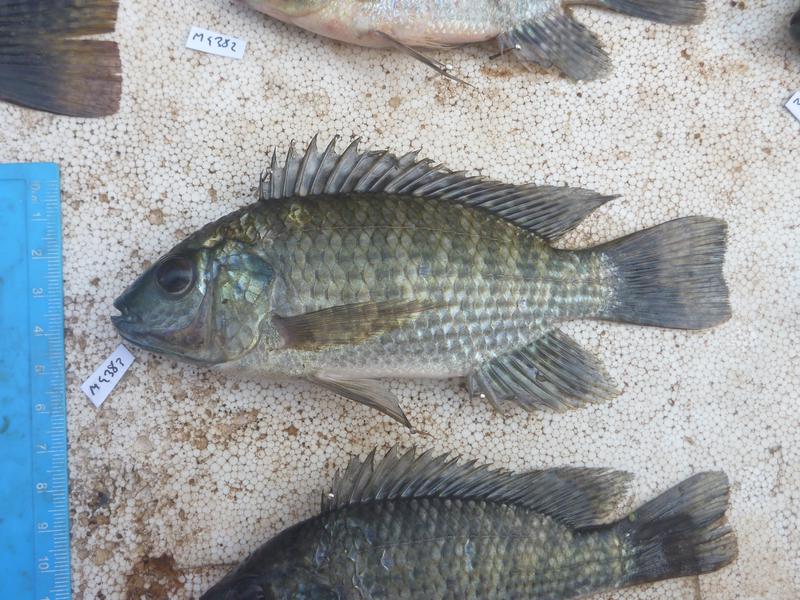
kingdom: Animalia
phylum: Chordata
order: Perciformes
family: Cichlidae
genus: Oreochromis
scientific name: Oreochromis leucostictus
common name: Blue spotted tilapia
